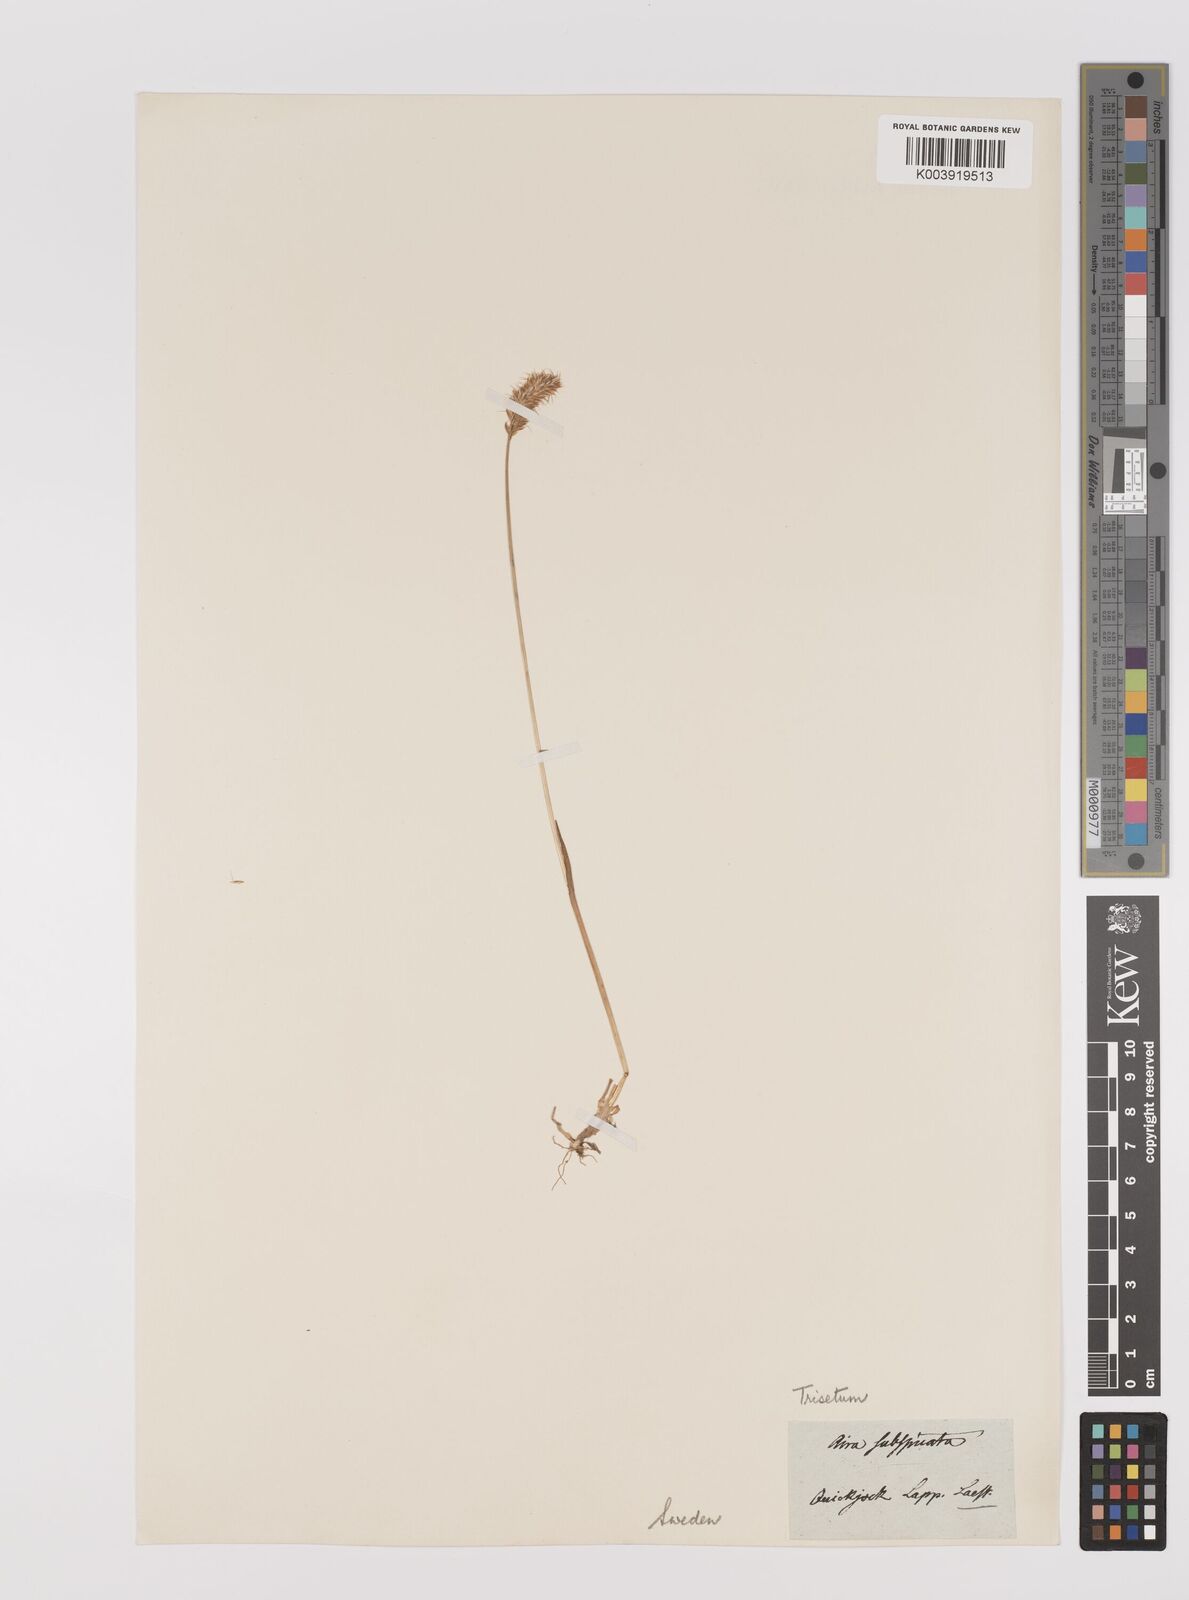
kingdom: Plantae
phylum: Tracheophyta
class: Liliopsida
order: Poales
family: Poaceae
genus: Koeleria
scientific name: Koeleria spicata
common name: Mountain trisetum
